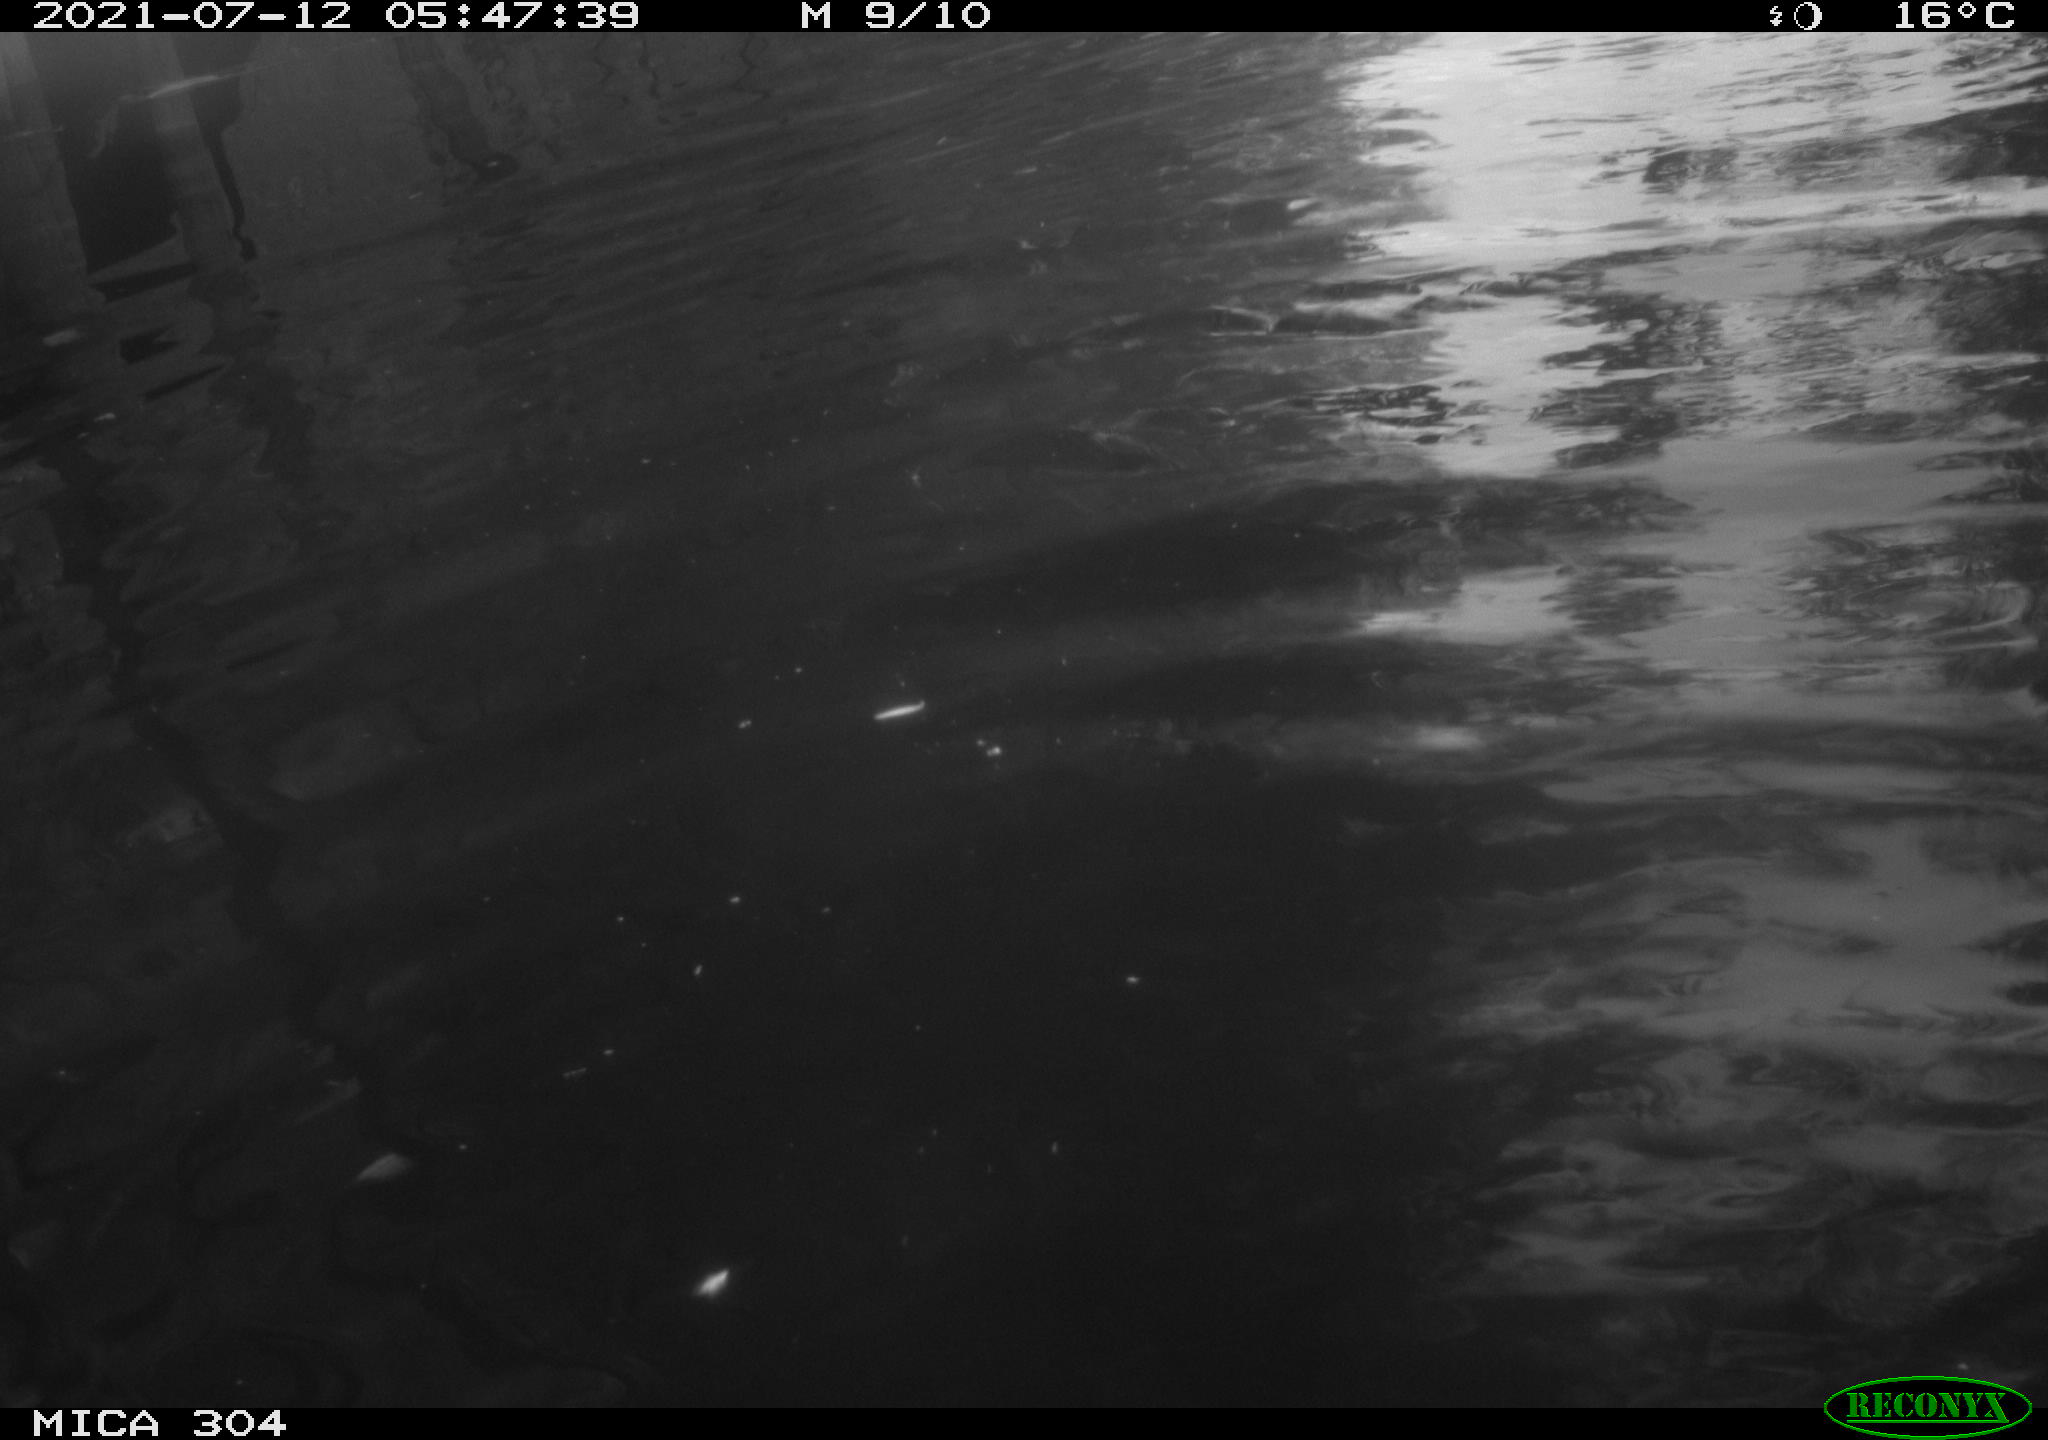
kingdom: Animalia
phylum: Chordata
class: Aves
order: Anseriformes
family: Anatidae
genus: Mareca
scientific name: Mareca strepera
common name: Gadwall
